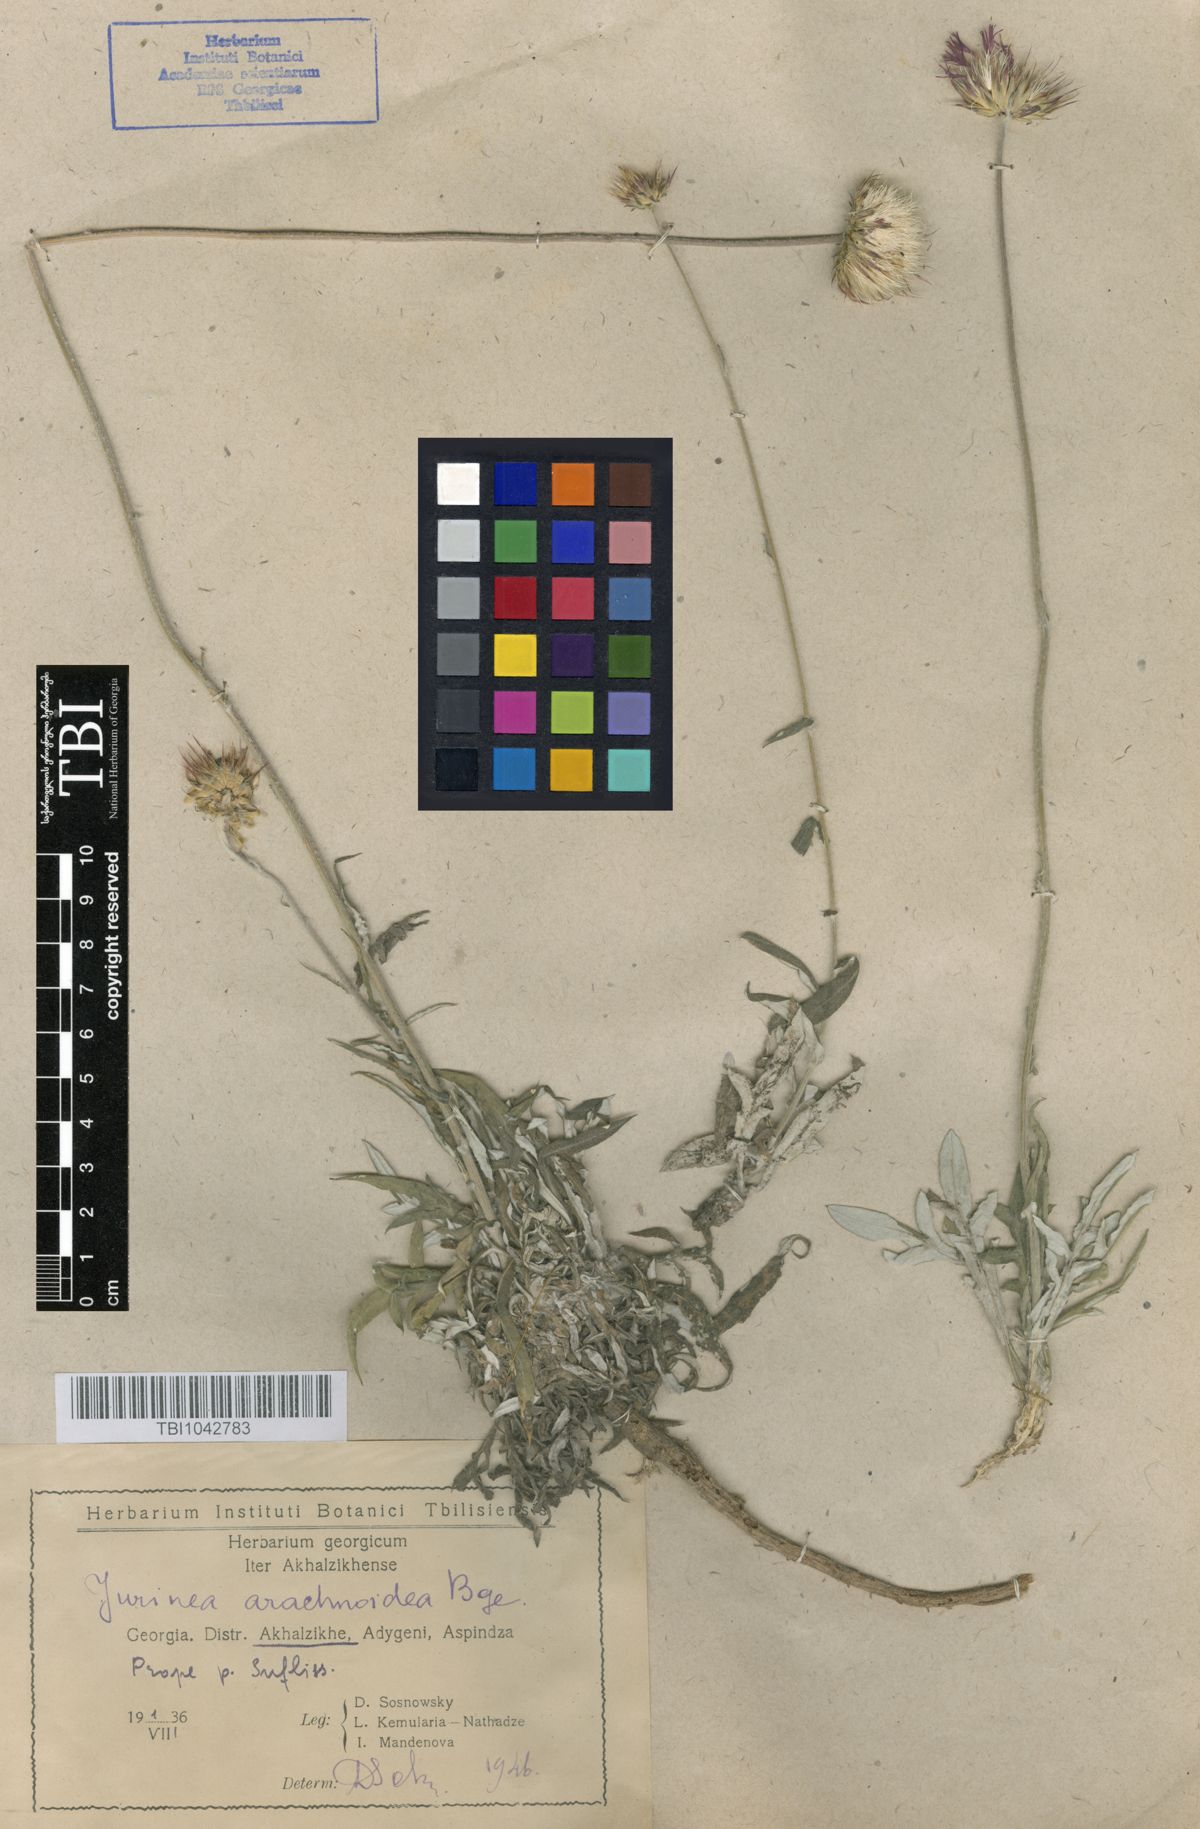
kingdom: Plantae
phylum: Tracheophyta
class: Magnoliopsida
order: Asterales
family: Asteraceae
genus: Jurinea
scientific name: Jurinea blanda
